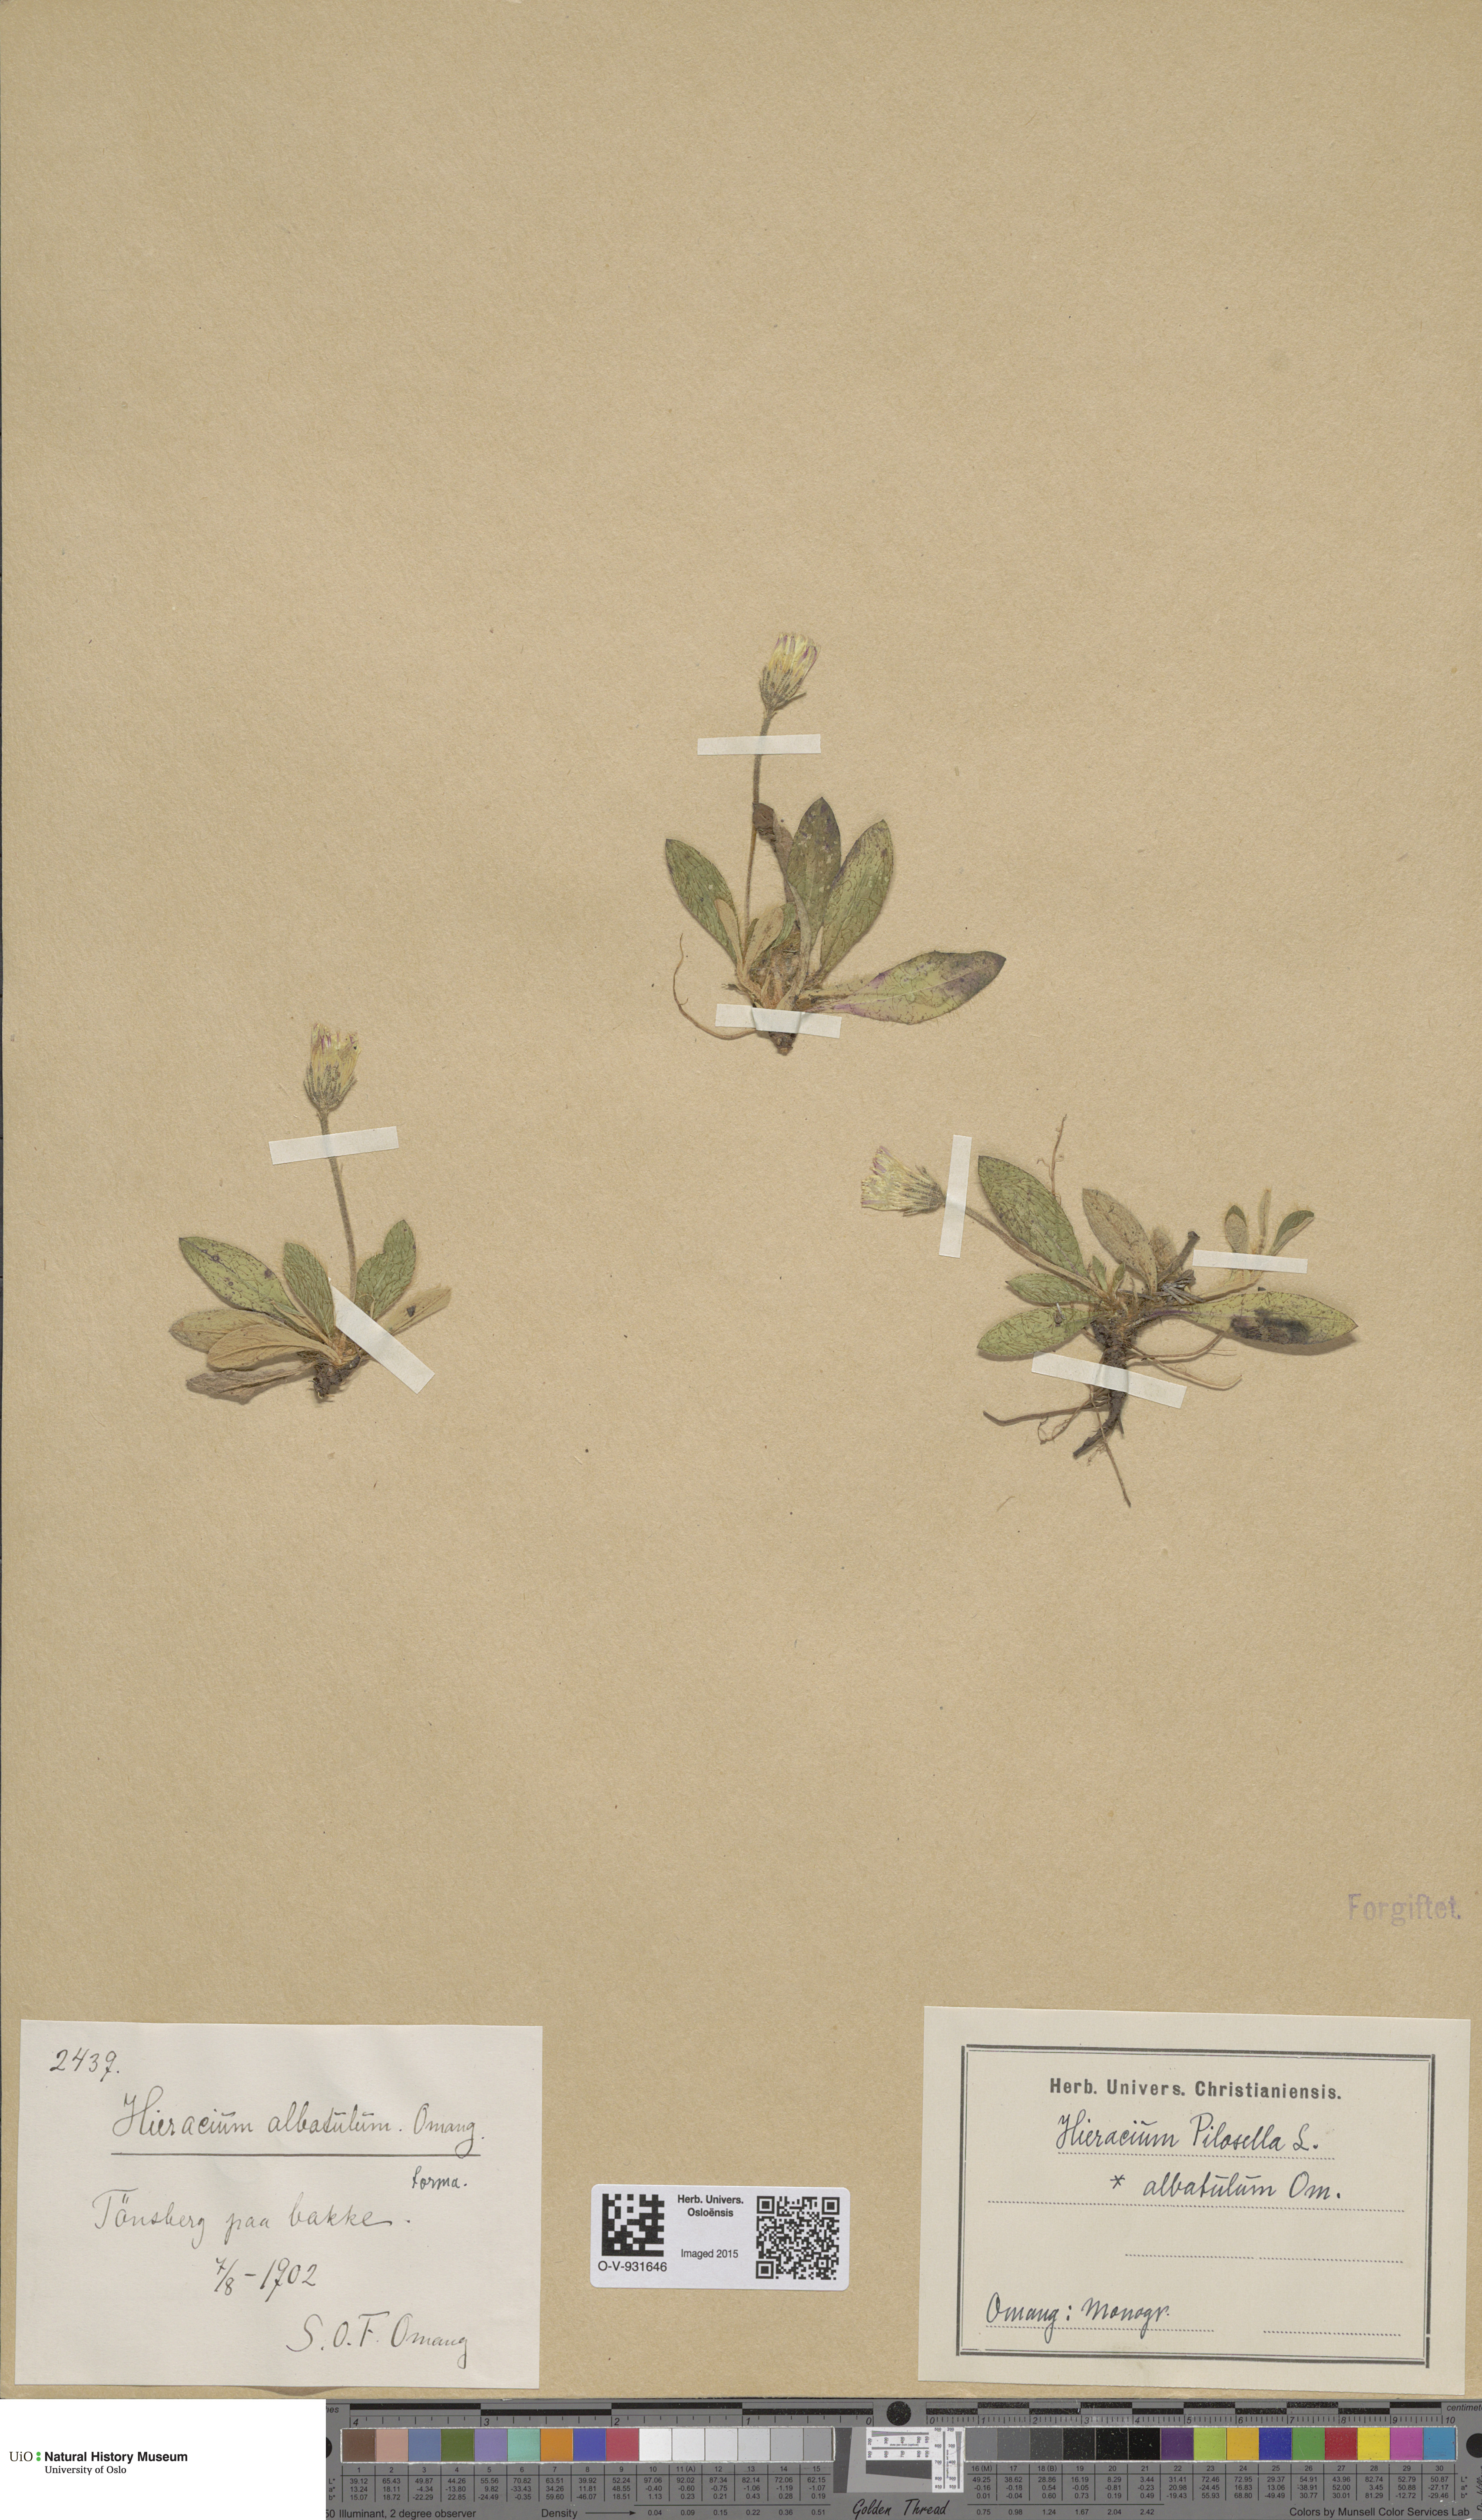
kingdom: Plantae
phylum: Tracheophyta
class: Magnoliopsida
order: Asterales
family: Asteraceae
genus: Pilosella
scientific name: Pilosella officinarum
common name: Mouse-ear hawkweed
